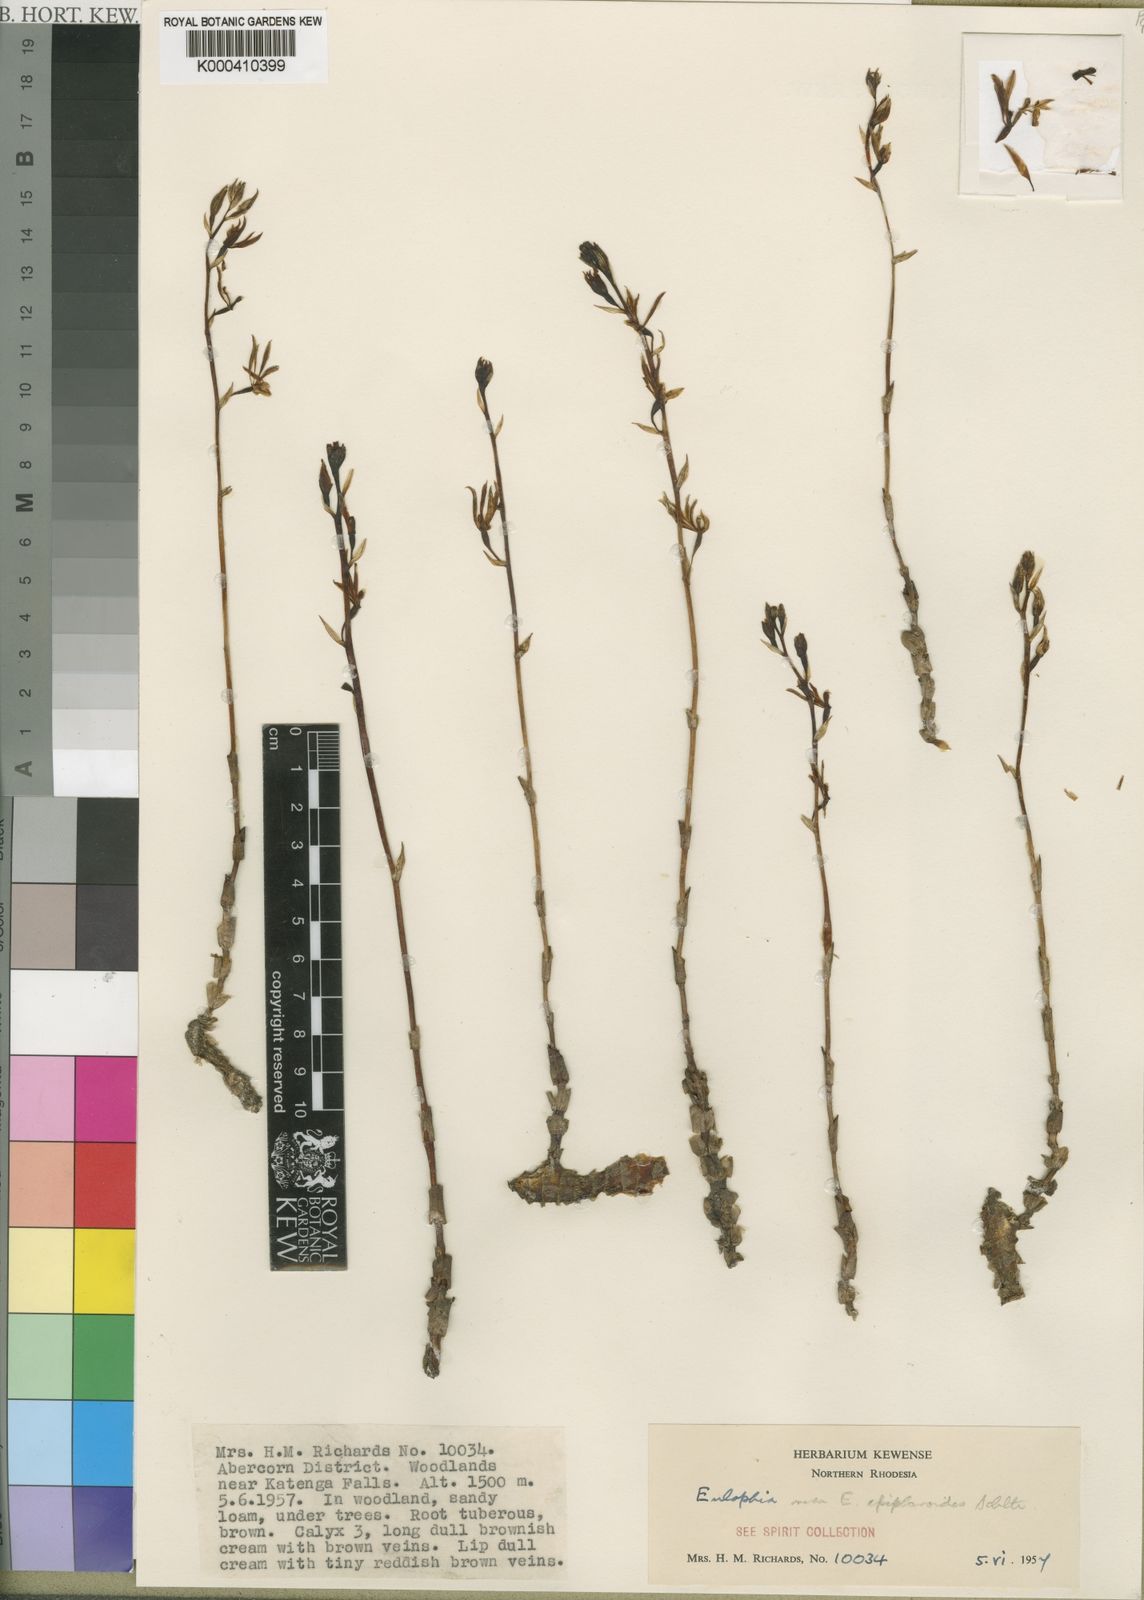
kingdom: Plantae
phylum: Tracheophyta
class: Liliopsida
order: Asparagales
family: Orchidaceae
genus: Eulophia
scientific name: Eulophia
